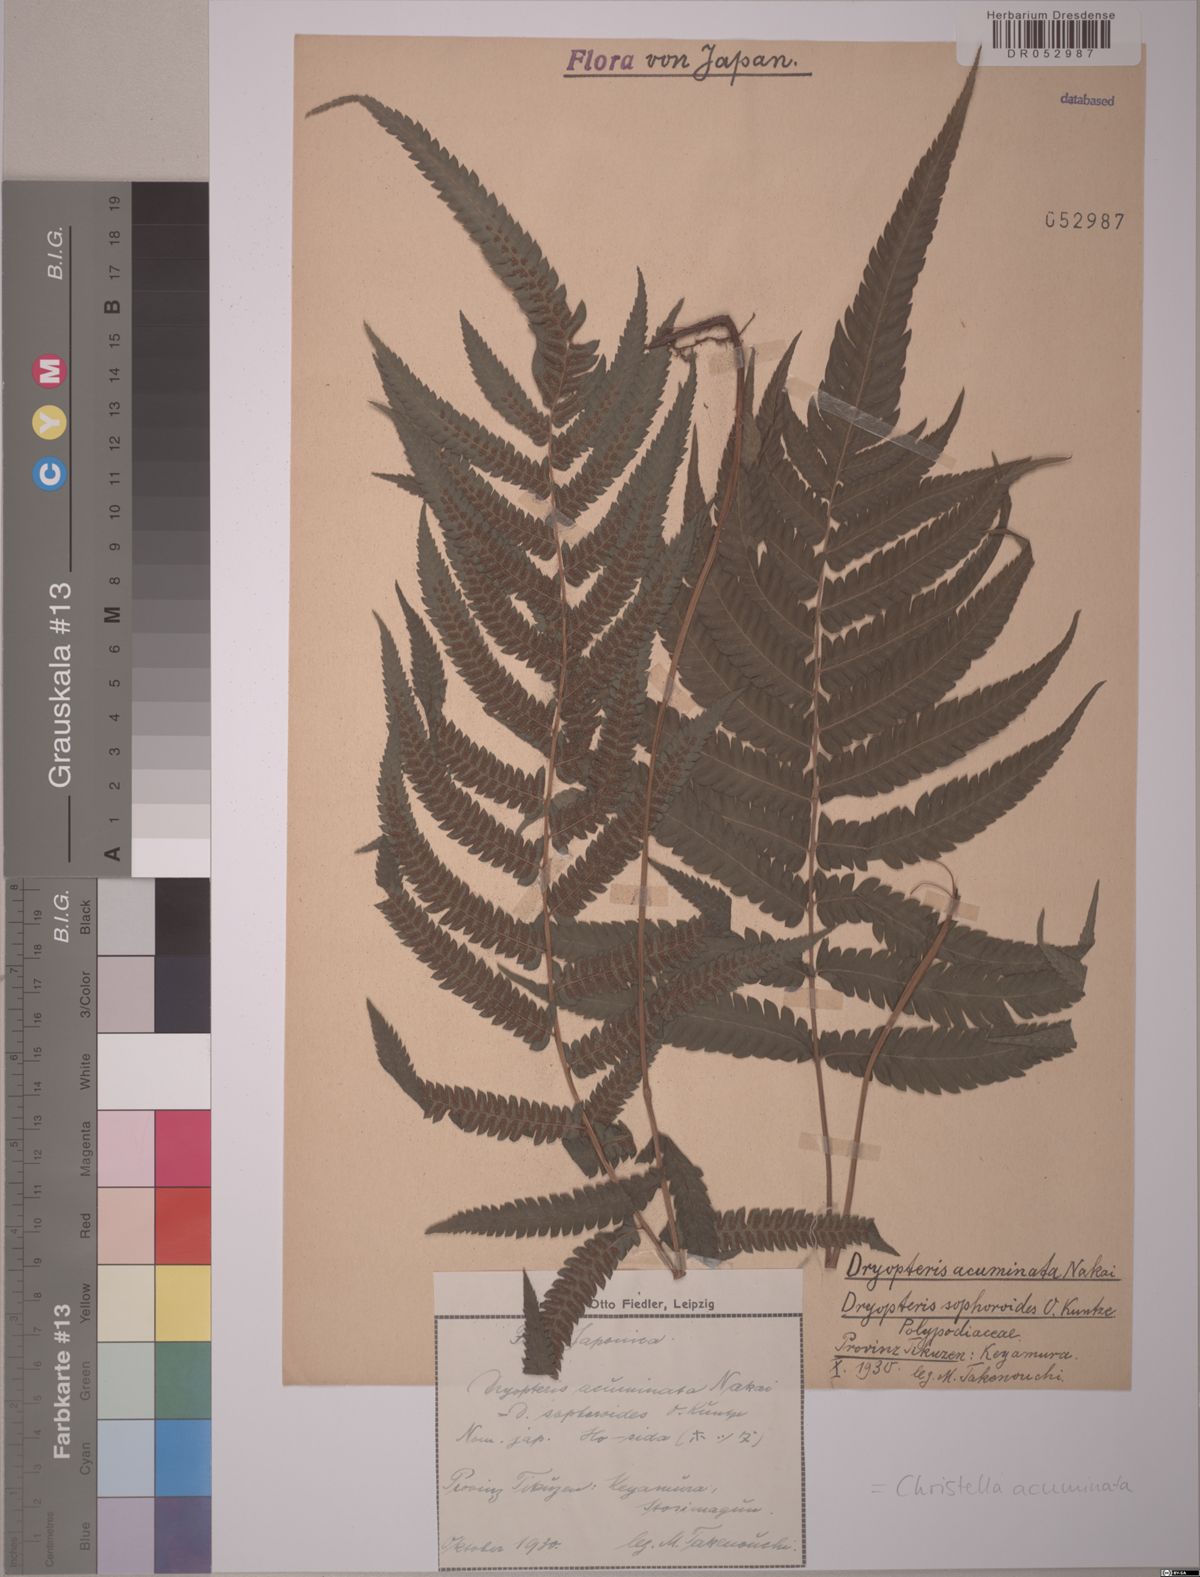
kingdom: Plantae
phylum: Tracheophyta
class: Polypodiopsida
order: Polypodiales
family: Thelypteridaceae
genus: Christella
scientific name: Christella acuminata
